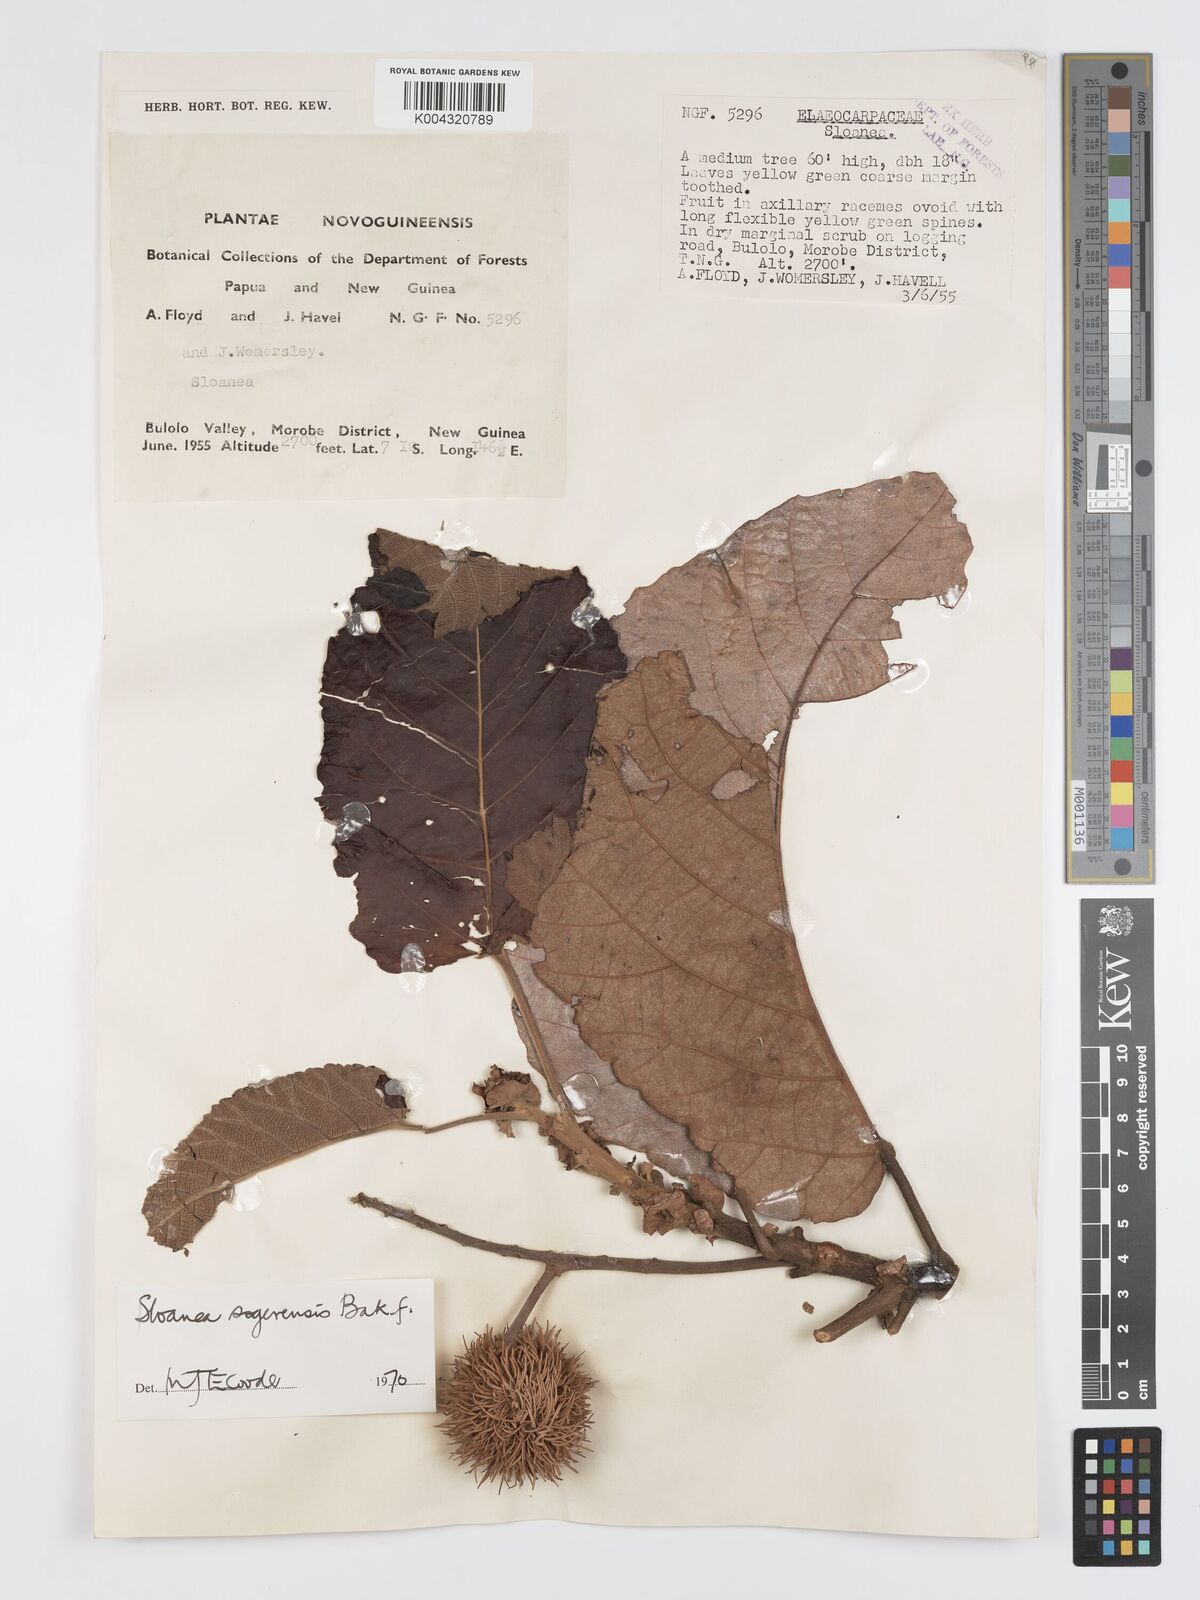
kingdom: Plantae
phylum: Tracheophyta
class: Magnoliopsida
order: Oxalidales
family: Elaeocarpaceae
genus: Sloanea
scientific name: Sloanea sogerensis
